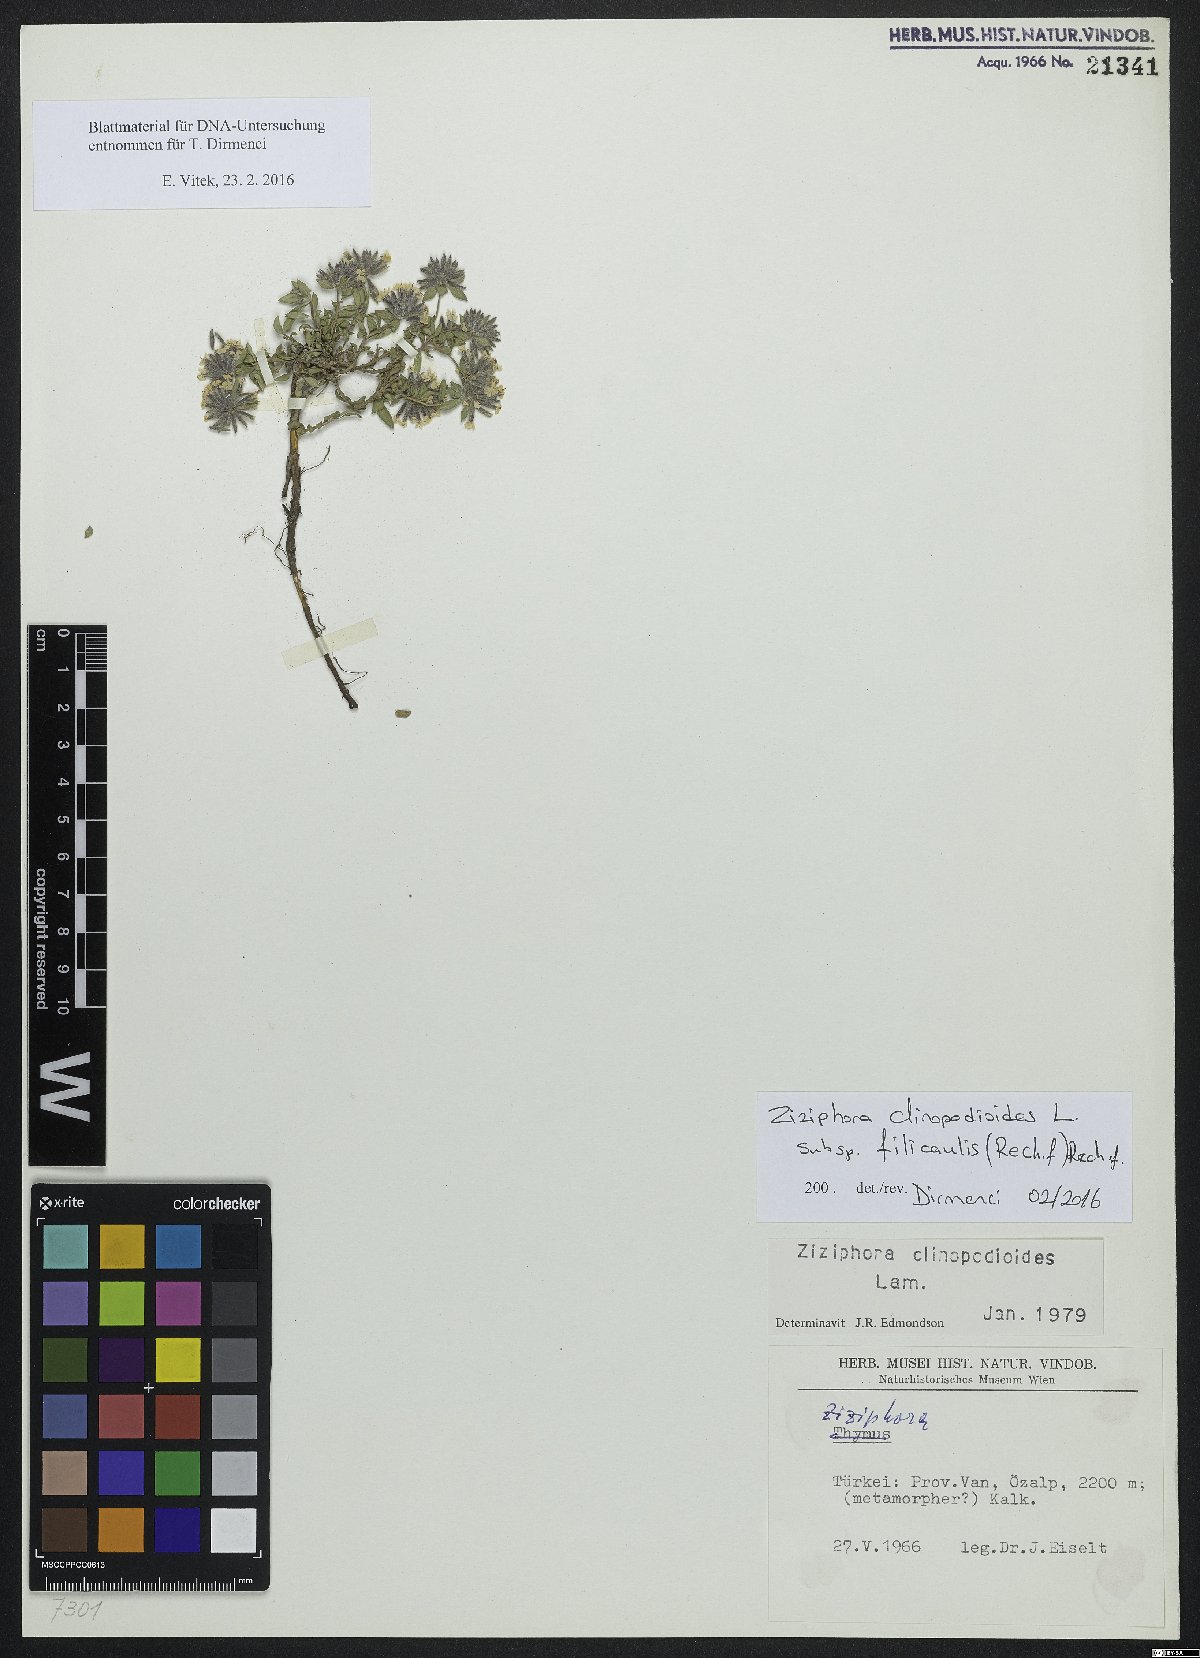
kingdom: Plantae
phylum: Tracheophyta
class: Magnoliopsida
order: Lamiales
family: Lamiaceae
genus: Ziziphora
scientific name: Ziziphora clinopodioides
